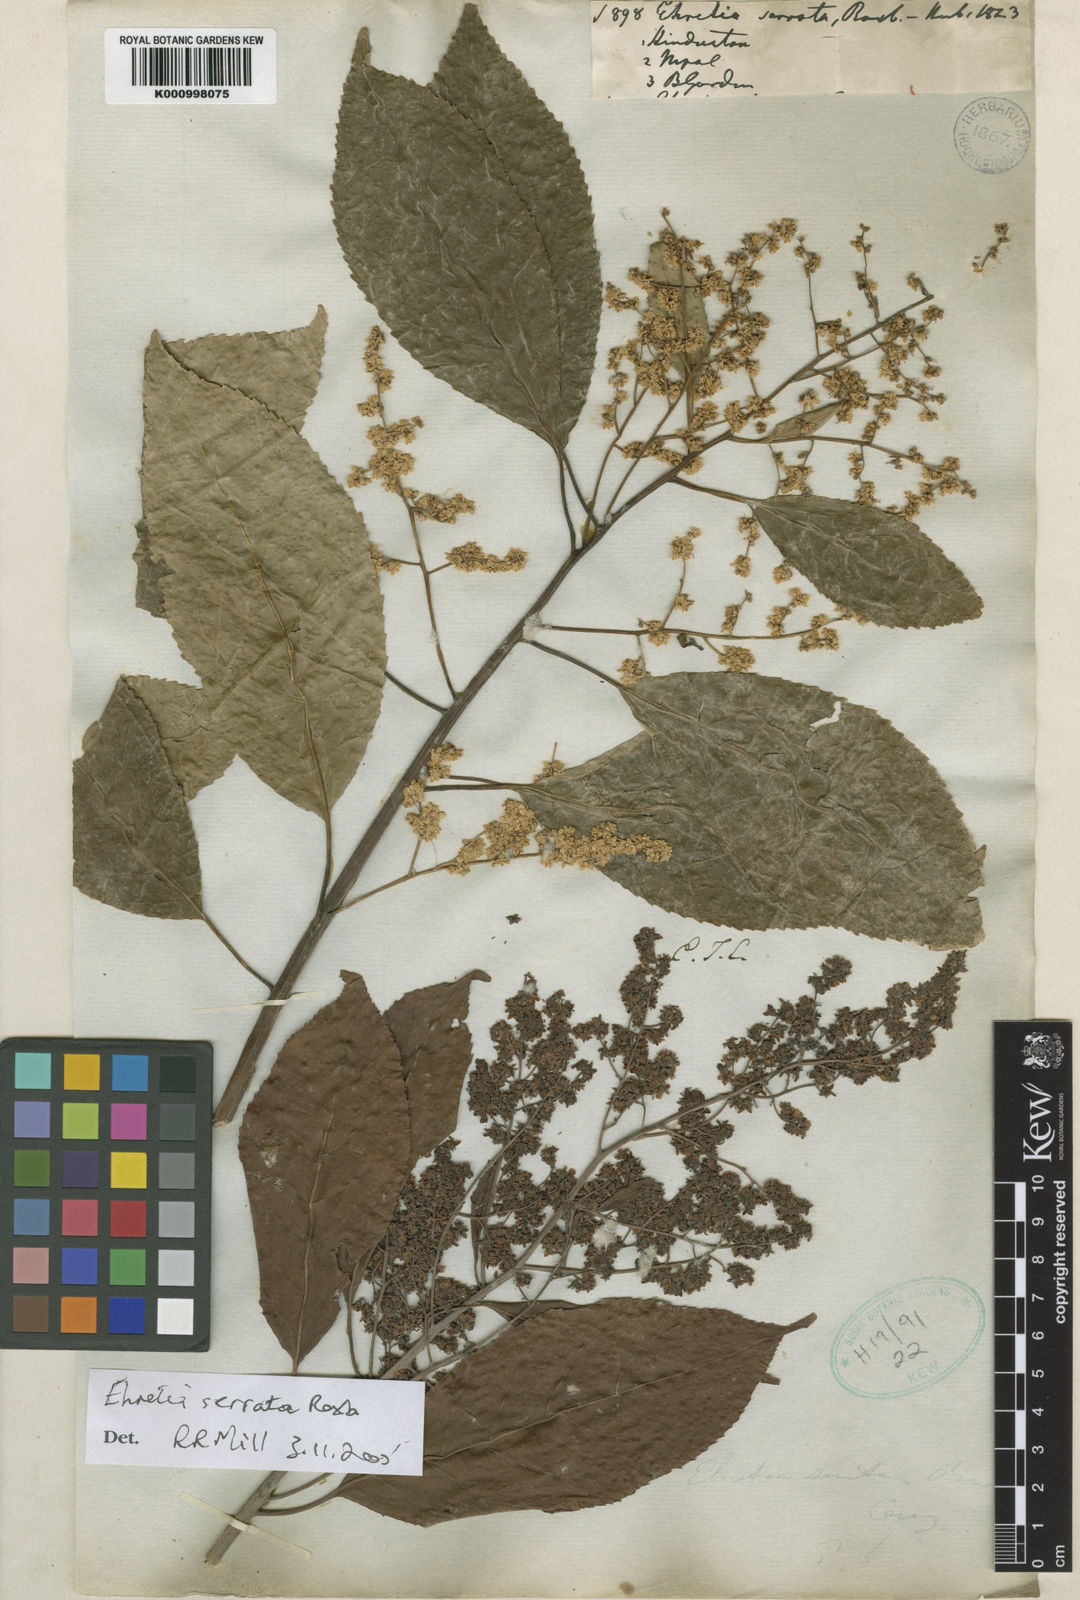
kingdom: Plantae
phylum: Tracheophyta
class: Magnoliopsida
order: Boraginales
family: Ehretiaceae
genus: Ehretia
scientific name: Ehretia acuminata
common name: Kodo wood
